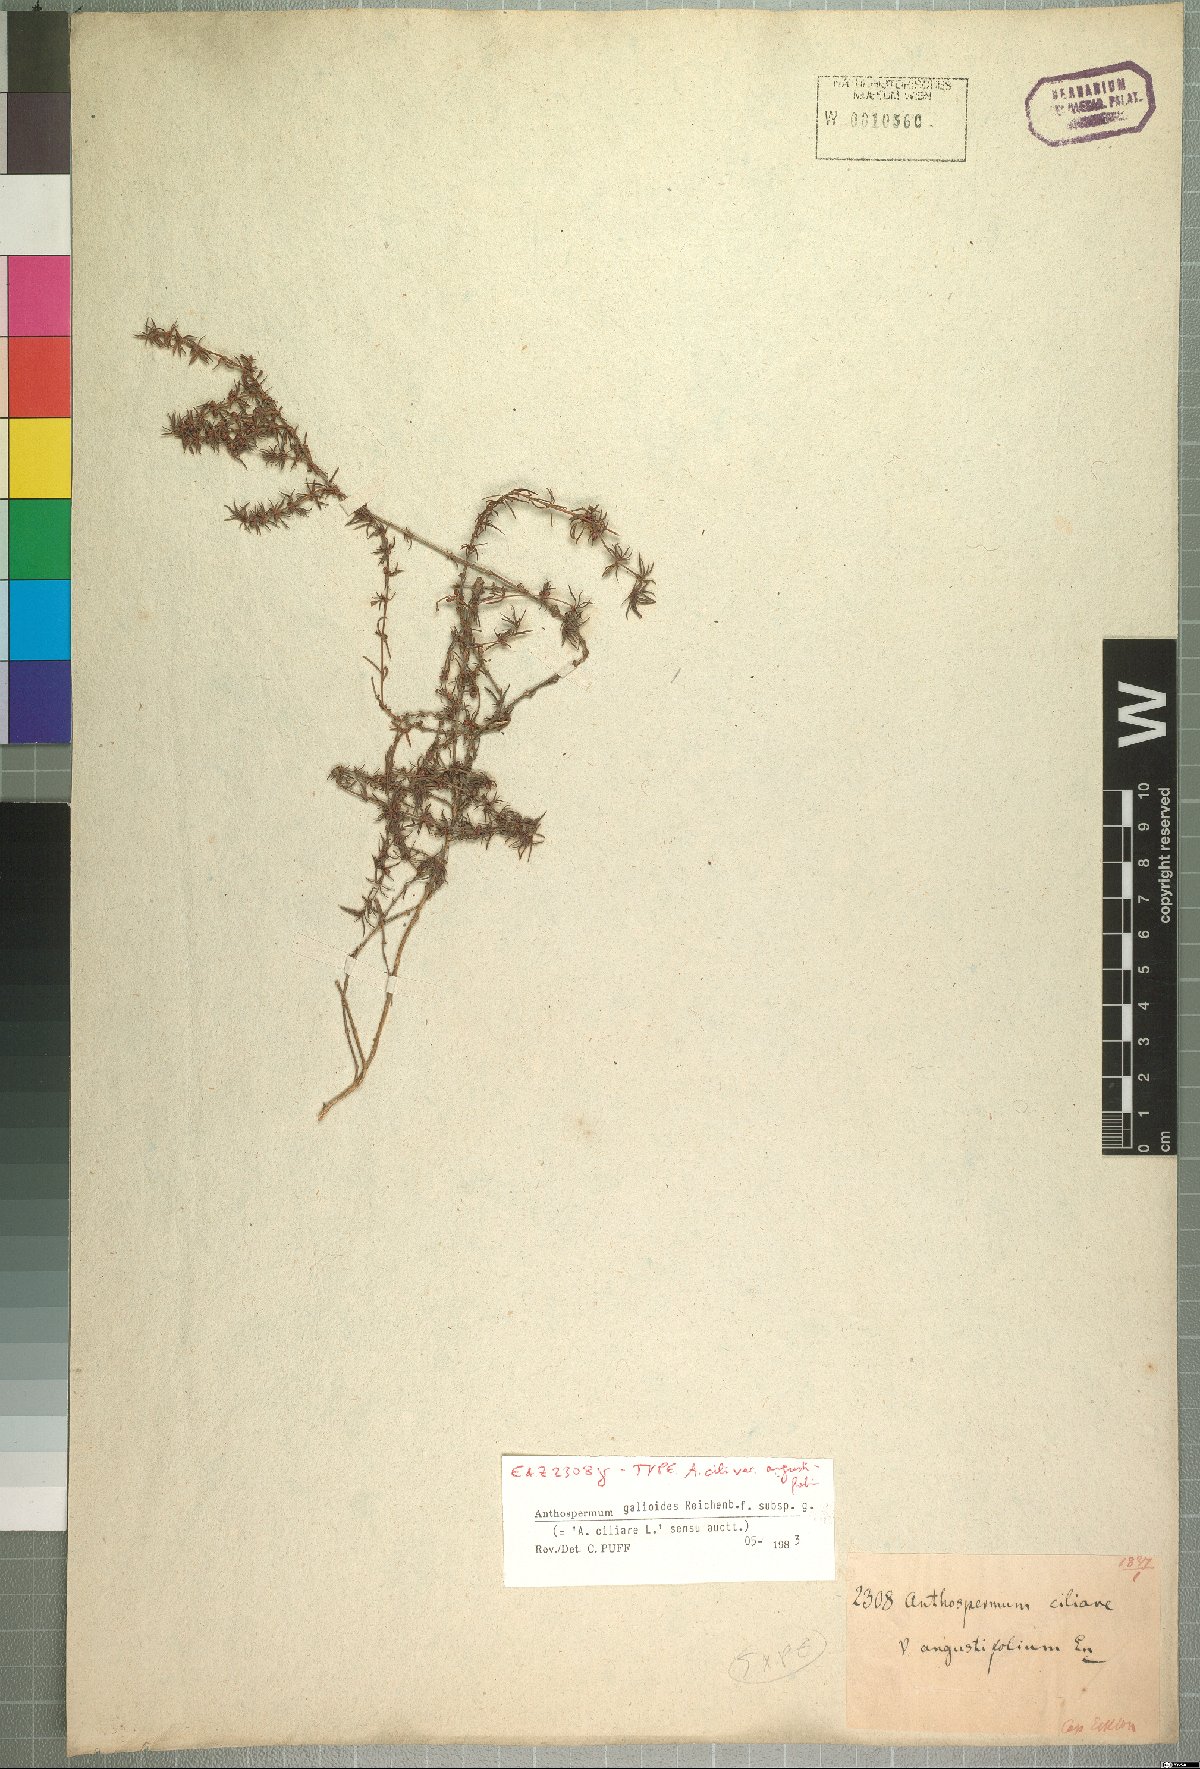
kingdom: Plantae
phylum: Tracheophyta
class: Magnoliopsida
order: Gentianales
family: Rubiaceae
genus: Anthospermum
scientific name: Anthospermum galioides
